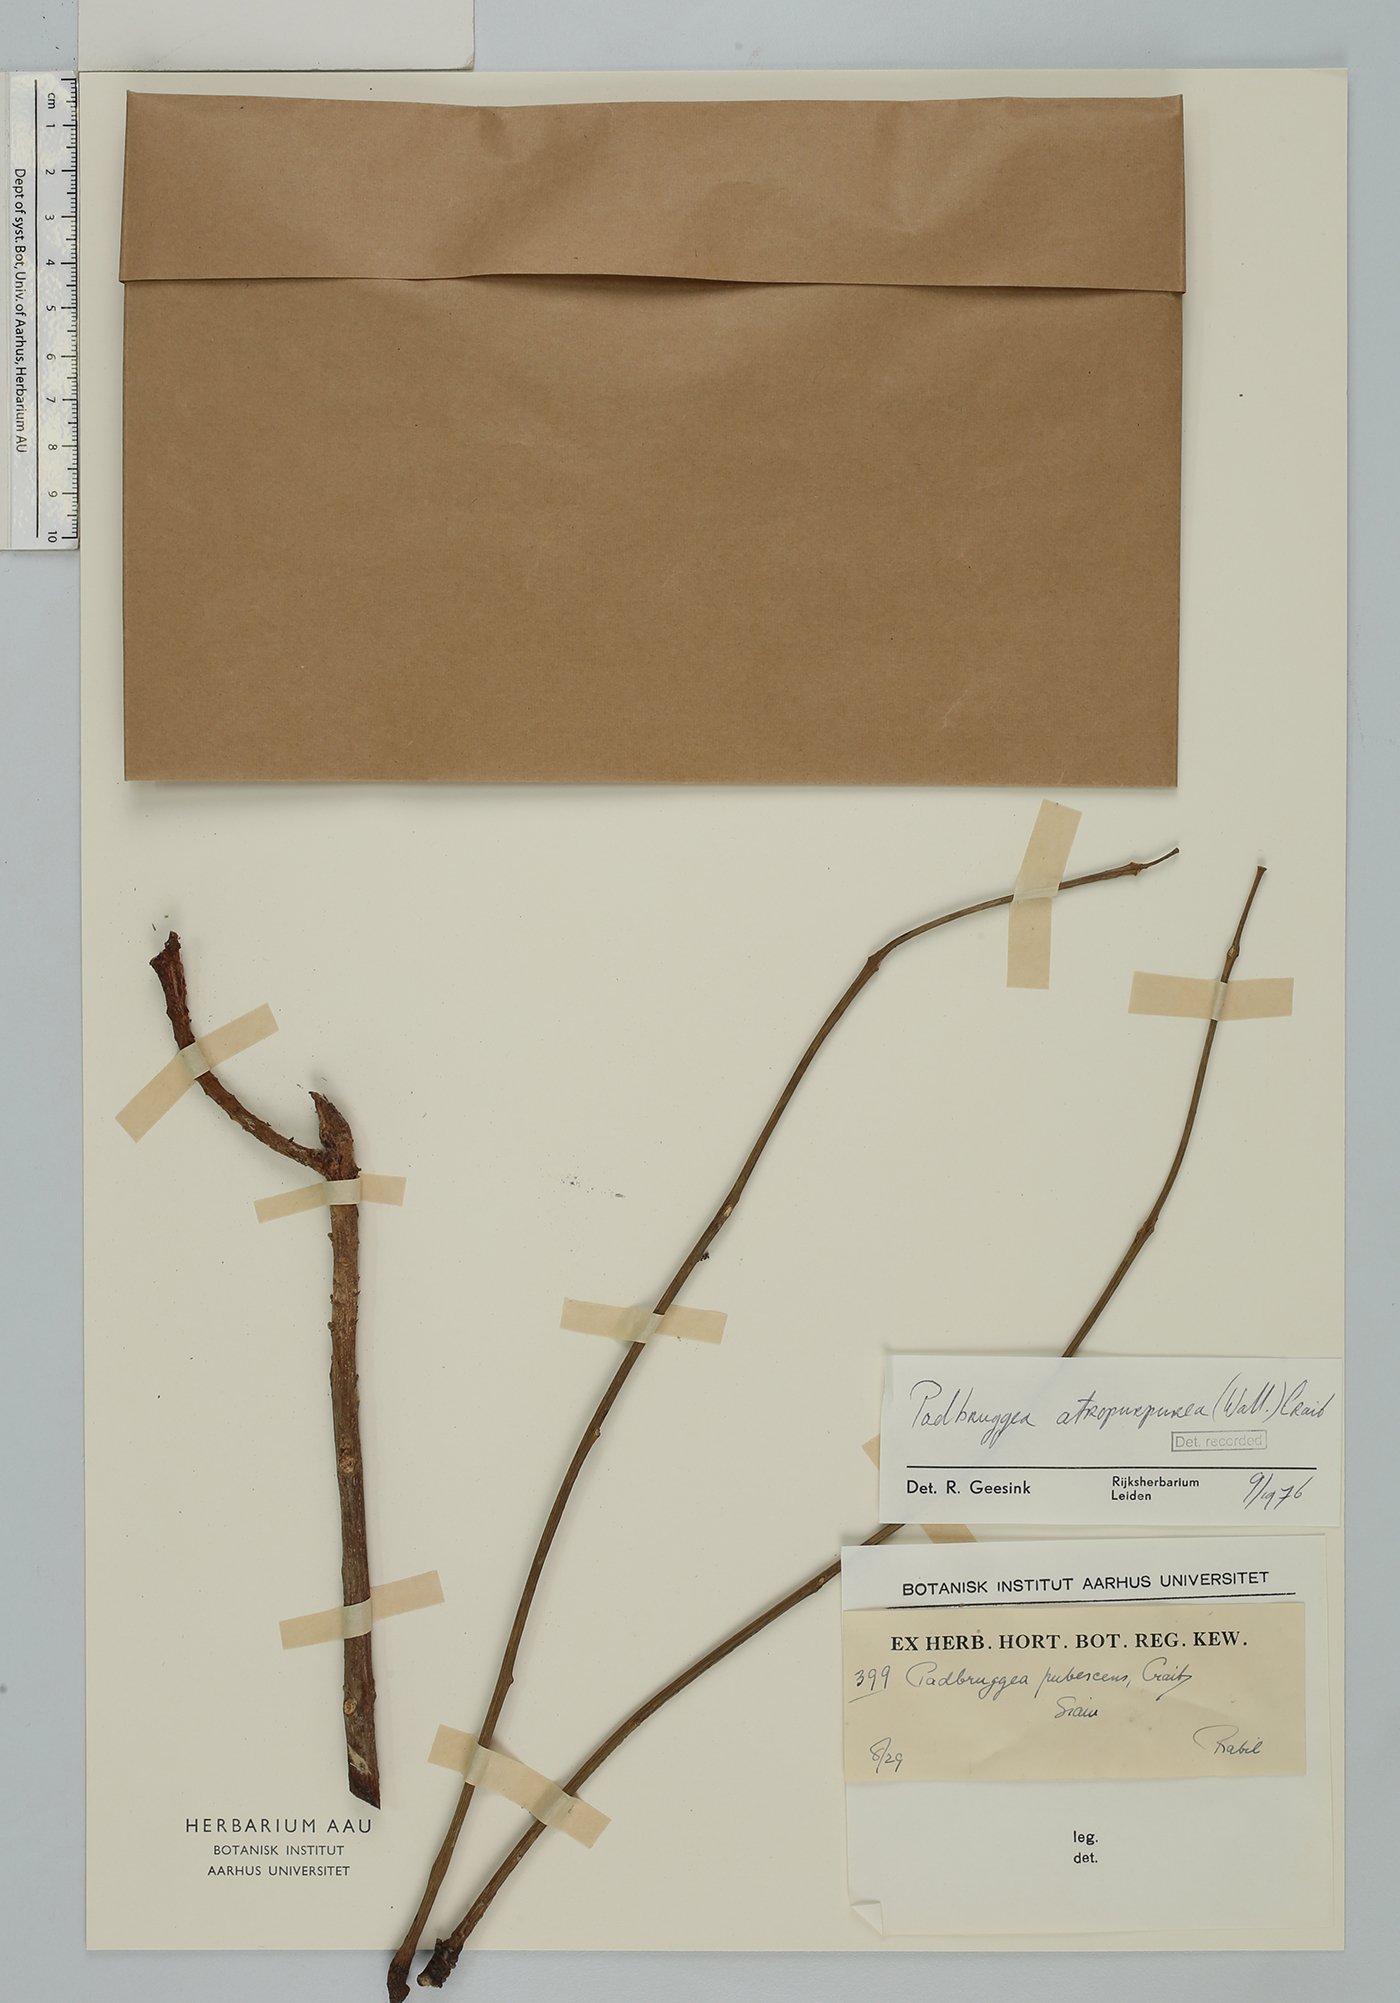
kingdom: Plantae
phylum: Tracheophyta
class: Magnoliopsida
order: Fabales
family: Fabaceae
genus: Adinobotrys
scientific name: Adinobotrys atropurpureus
